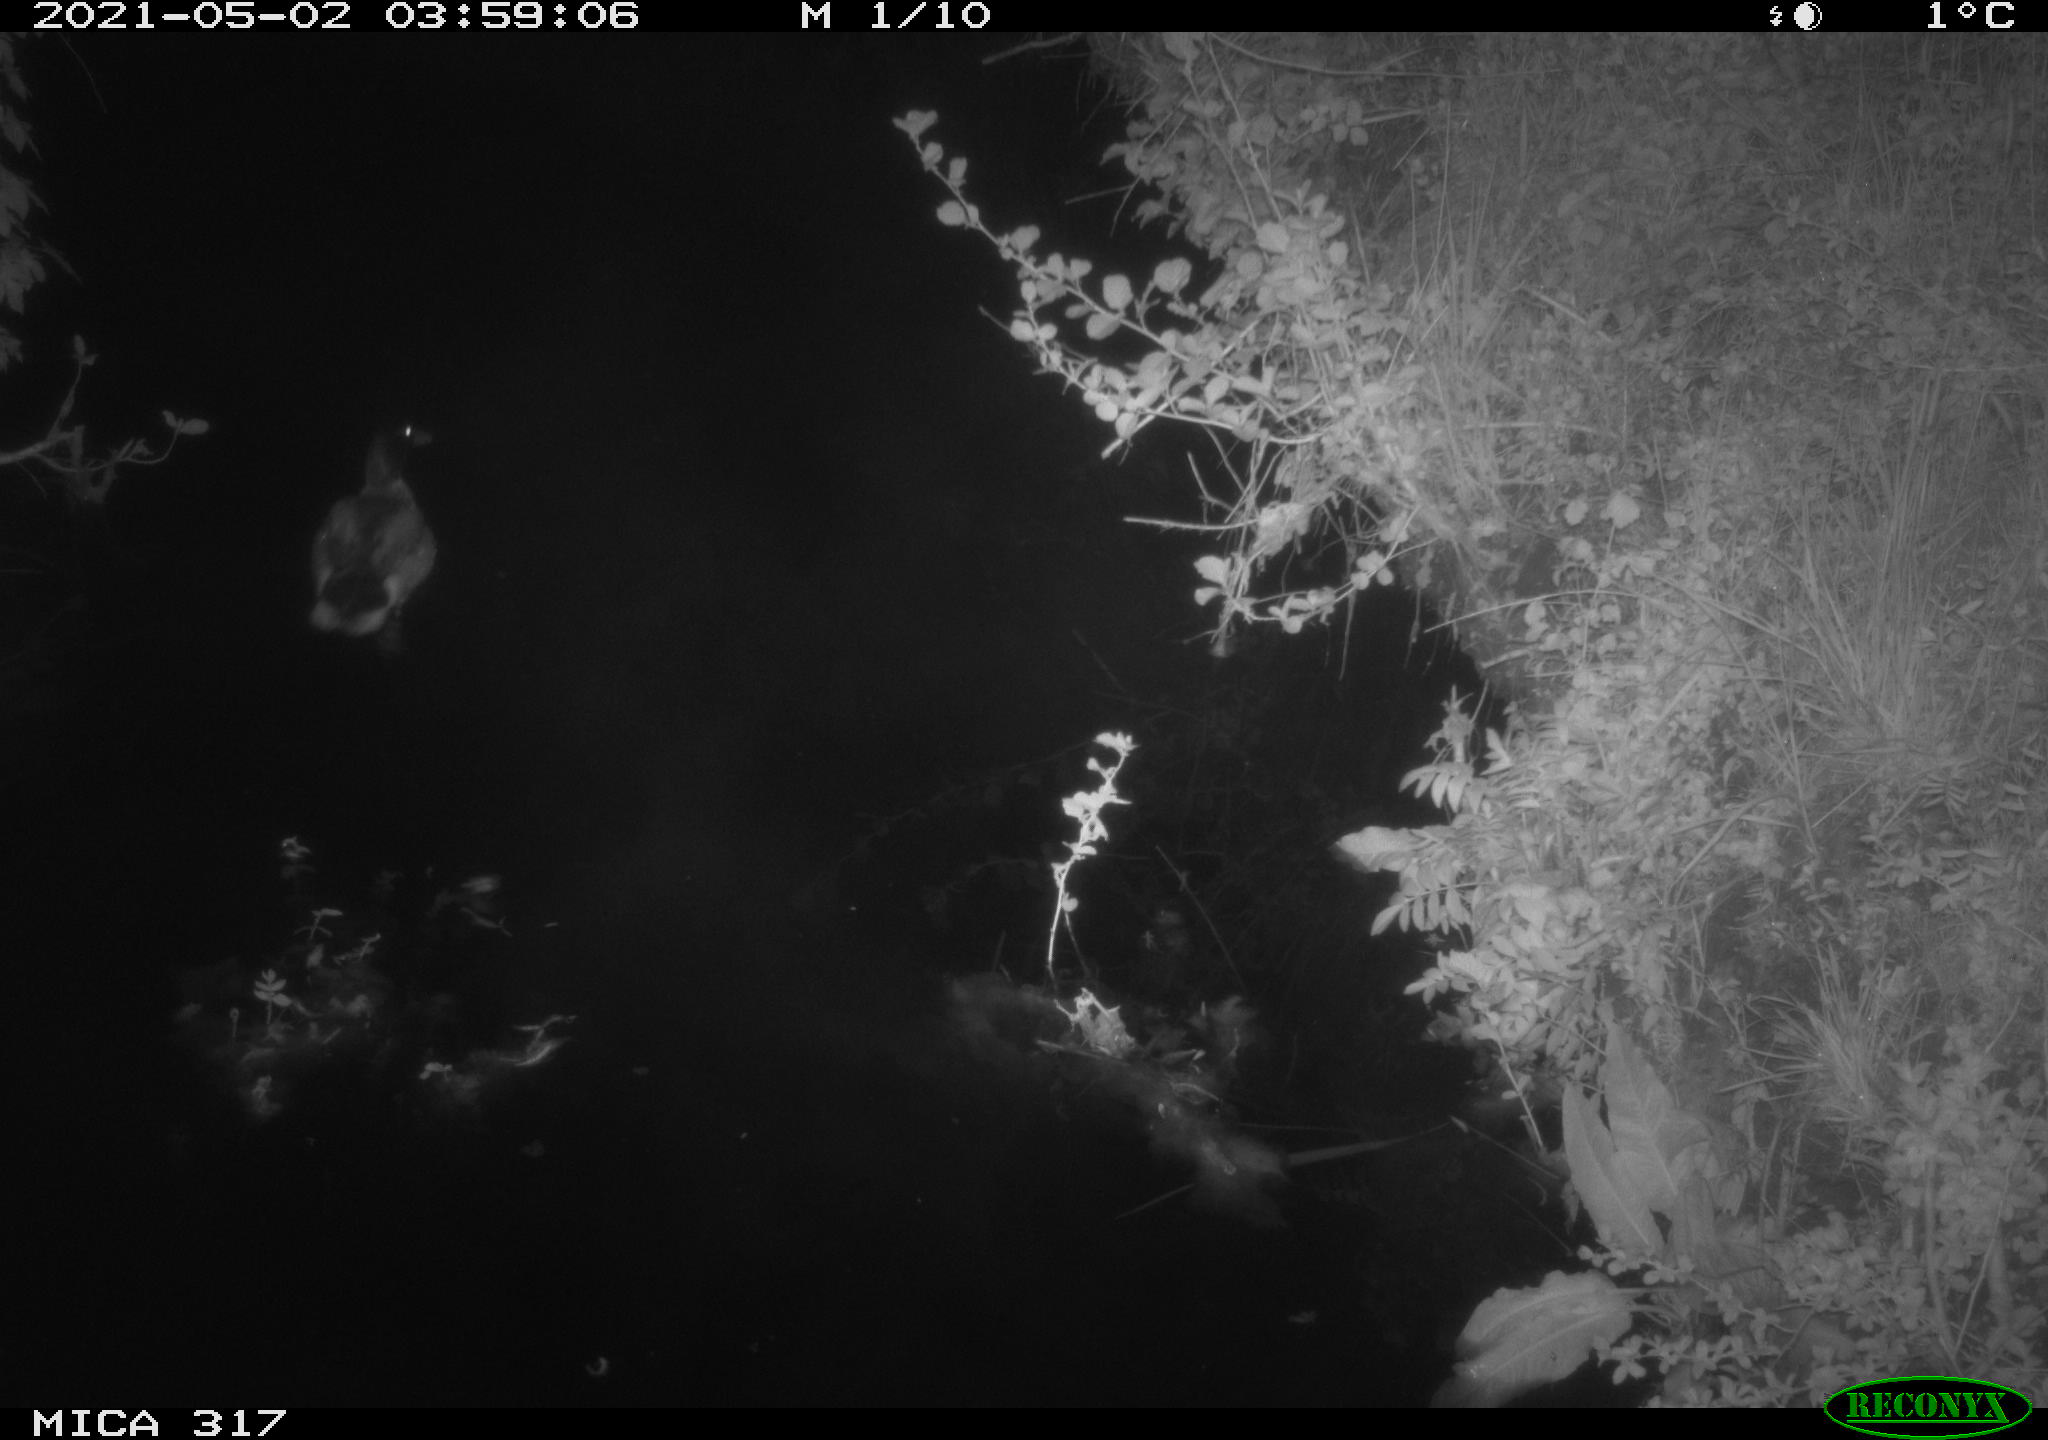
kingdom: Animalia
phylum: Chordata
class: Aves
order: Anseriformes
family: Anatidae
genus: Anas
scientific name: Anas
